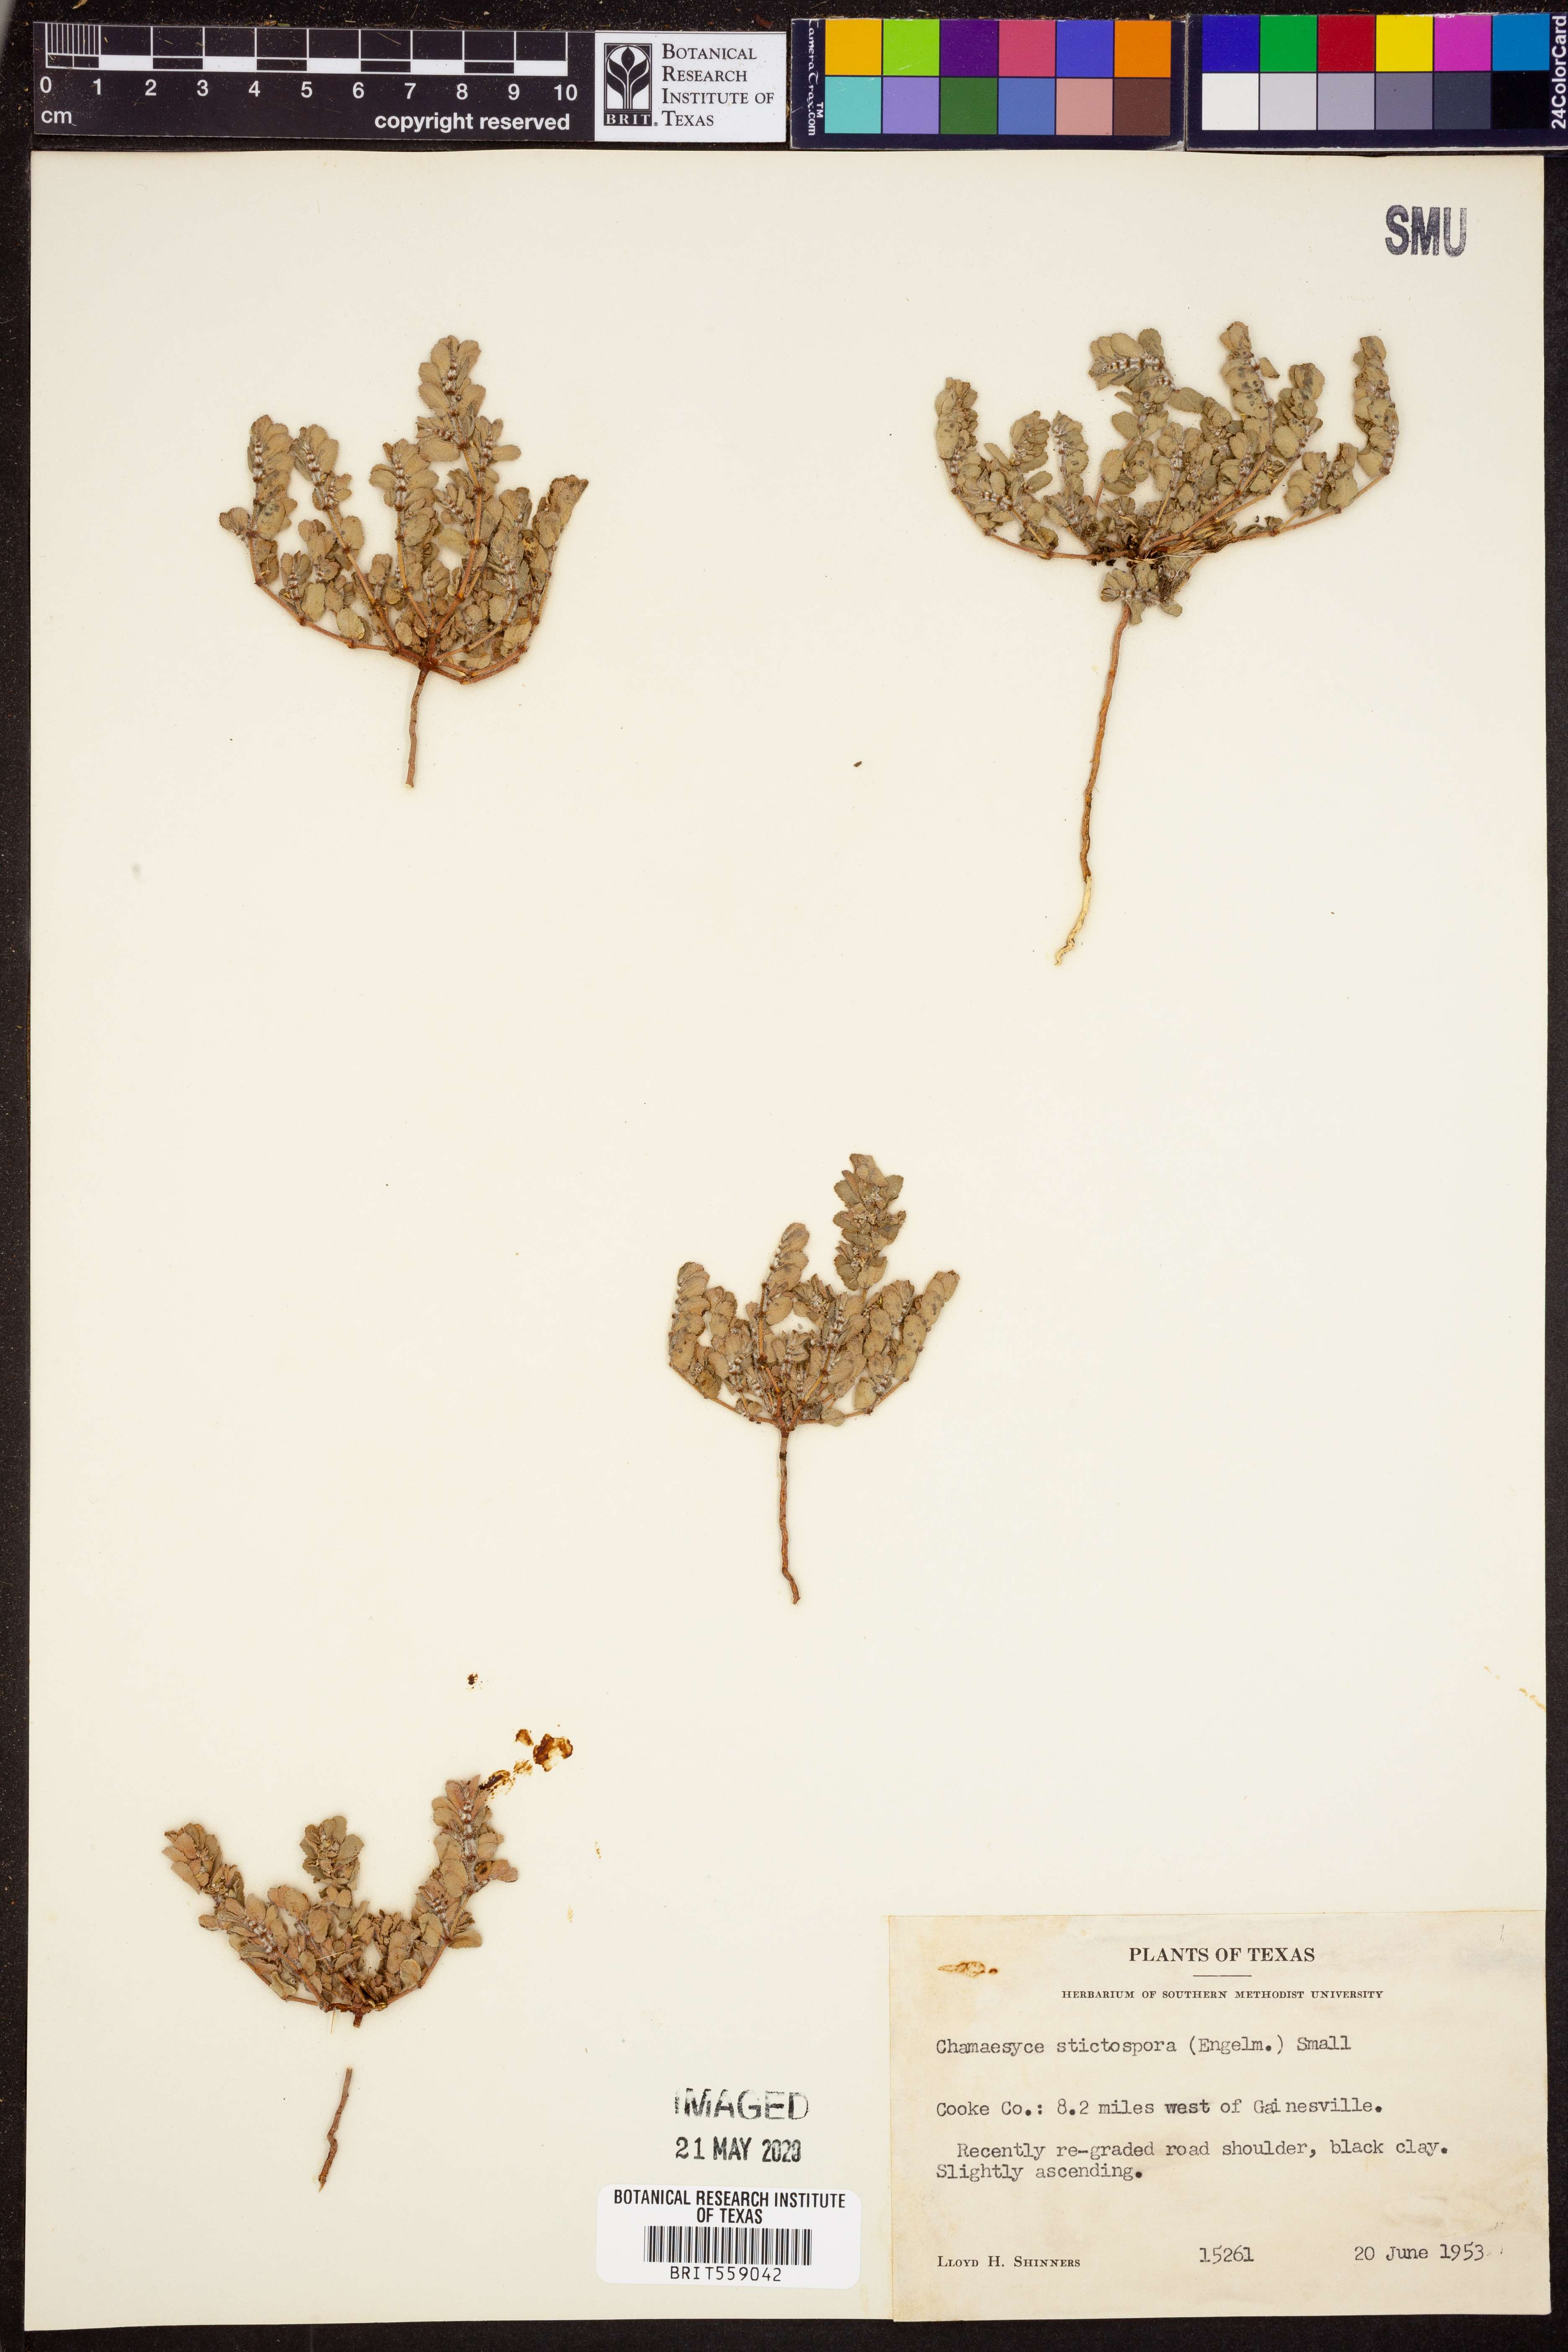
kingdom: Plantae
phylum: Tracheophyta
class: Magnoliopsida
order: Malpighiales
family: Euphorbiaceae
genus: Euphorbia
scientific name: Euphorbia stictospora
